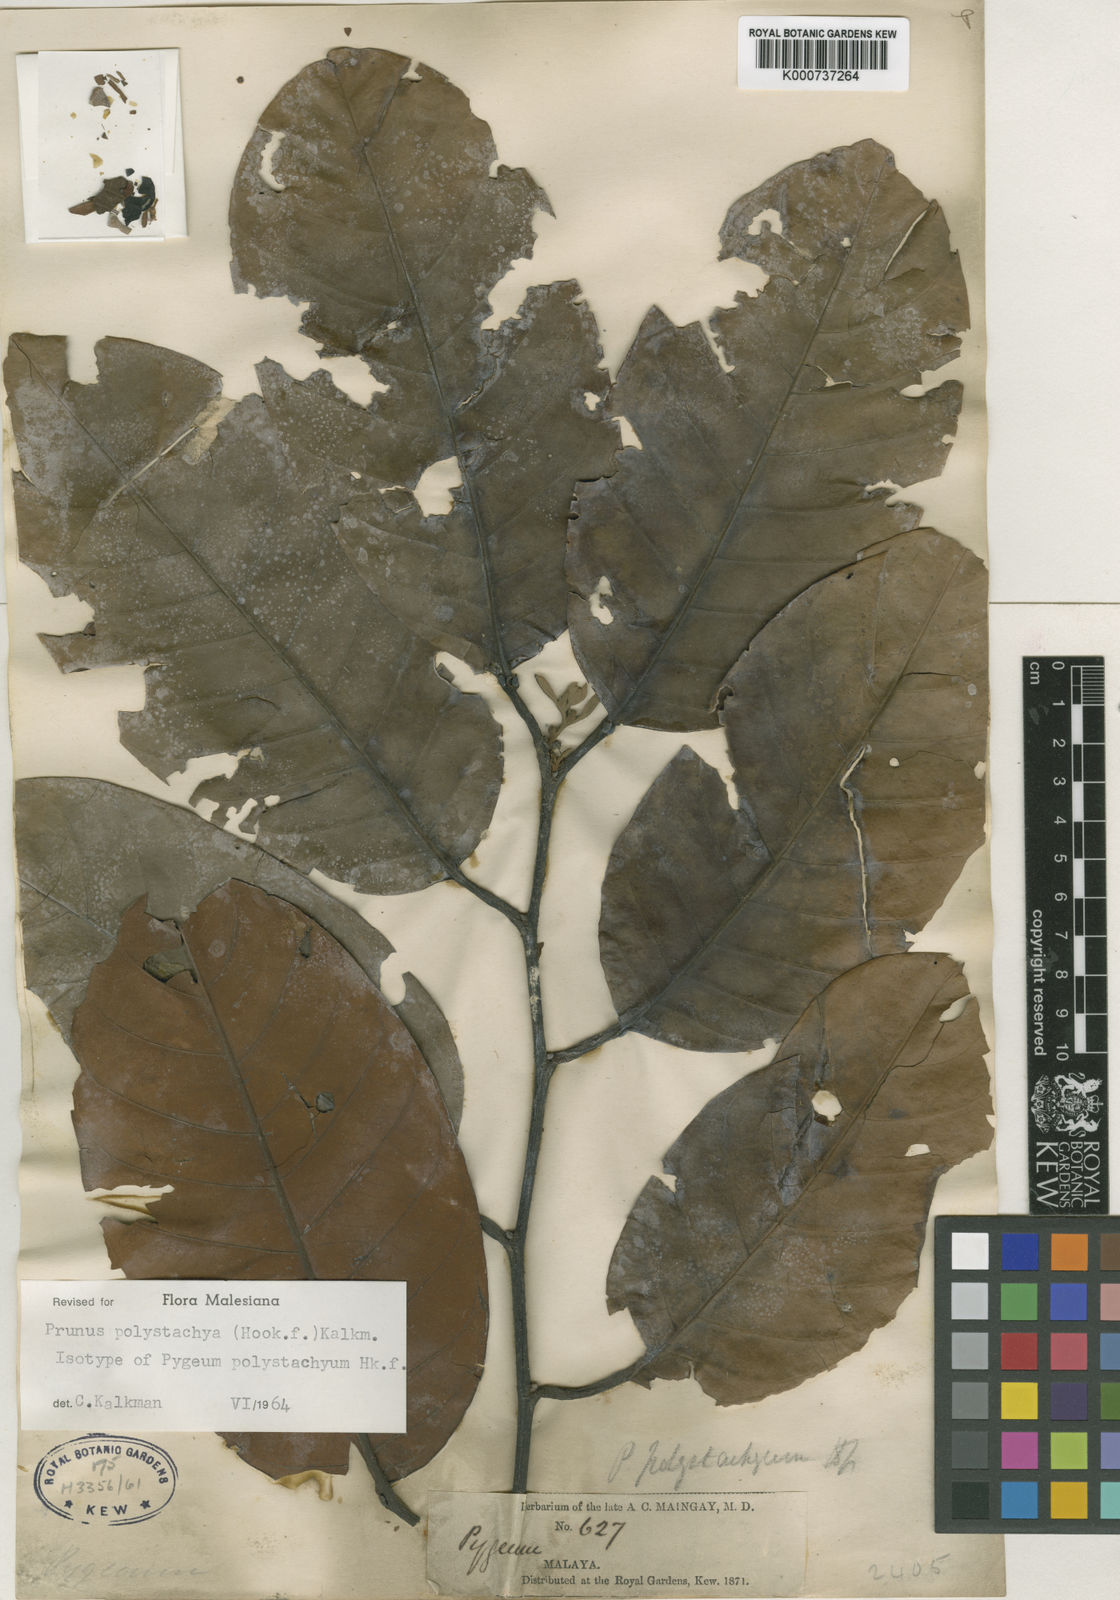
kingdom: Plantae
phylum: Tracheophyta
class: Magnoliopsida
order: Rosales
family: Rosaceae
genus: Prunus
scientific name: Prunus polystachya
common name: Bat laurel
